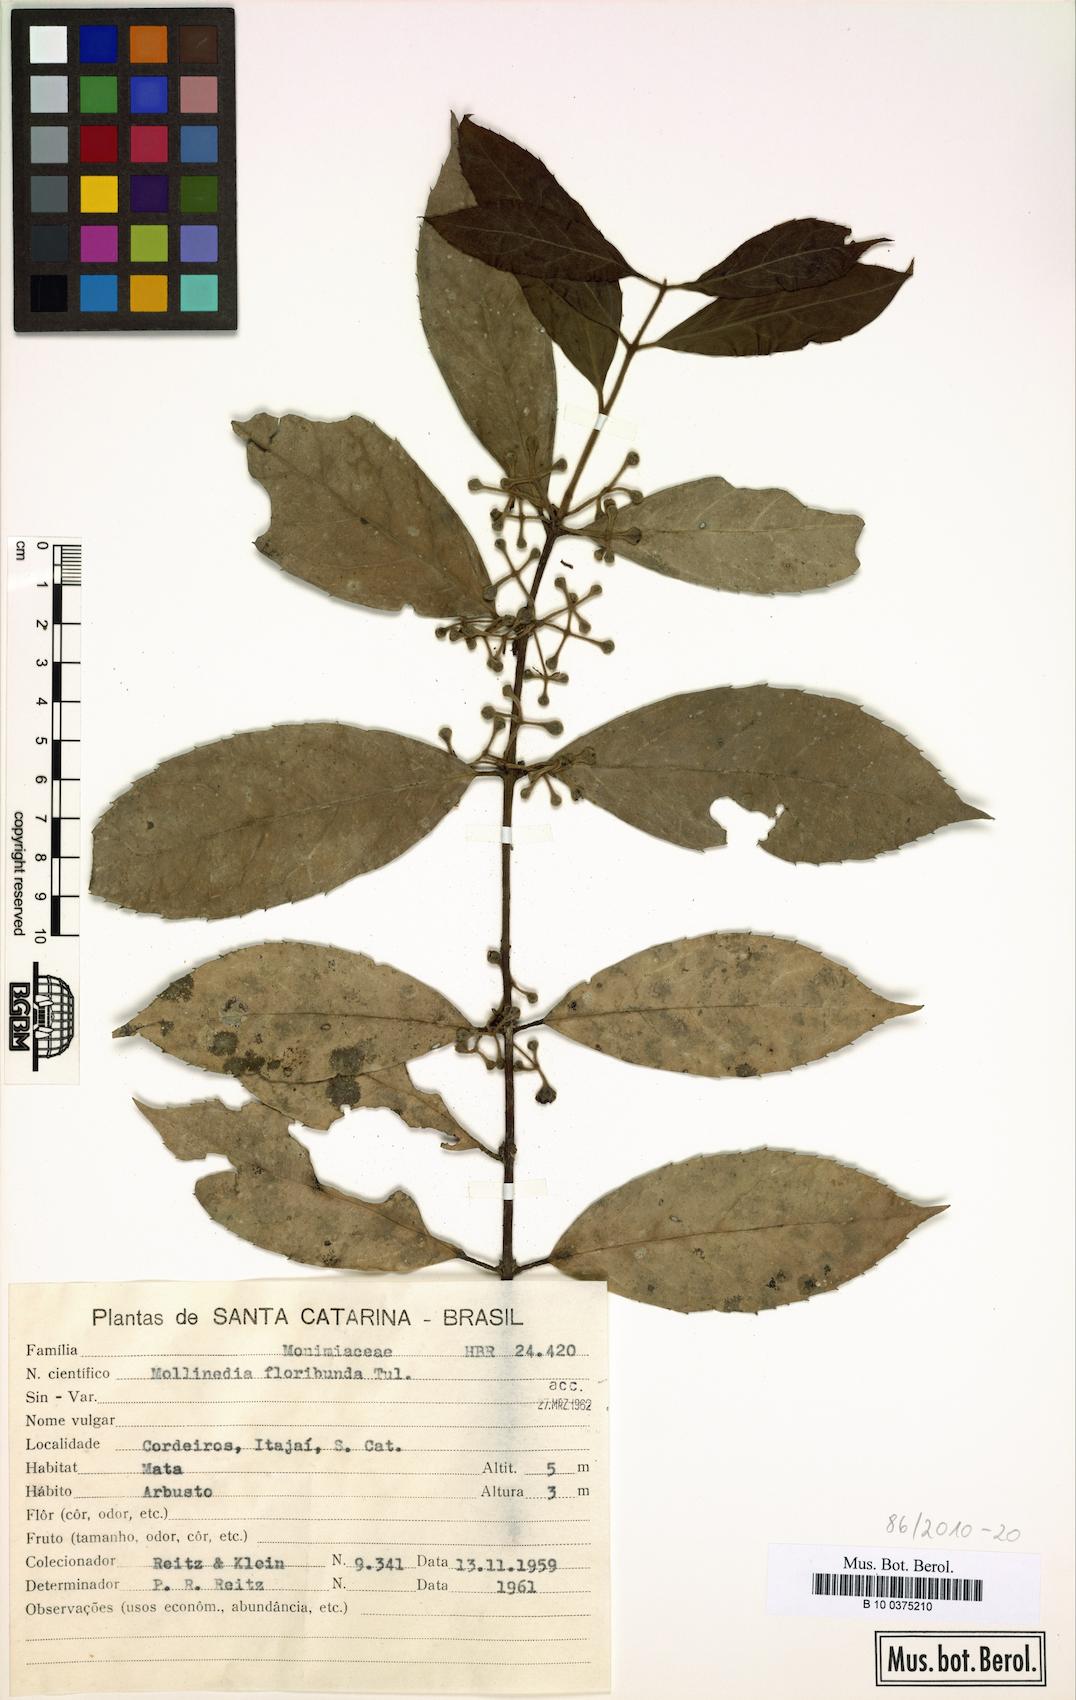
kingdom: Plantae
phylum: Tracheophyta
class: Magnoliopsida
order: Laurales
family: Monimiaceae
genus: Mollinedia
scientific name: Mollinedia umbellata
